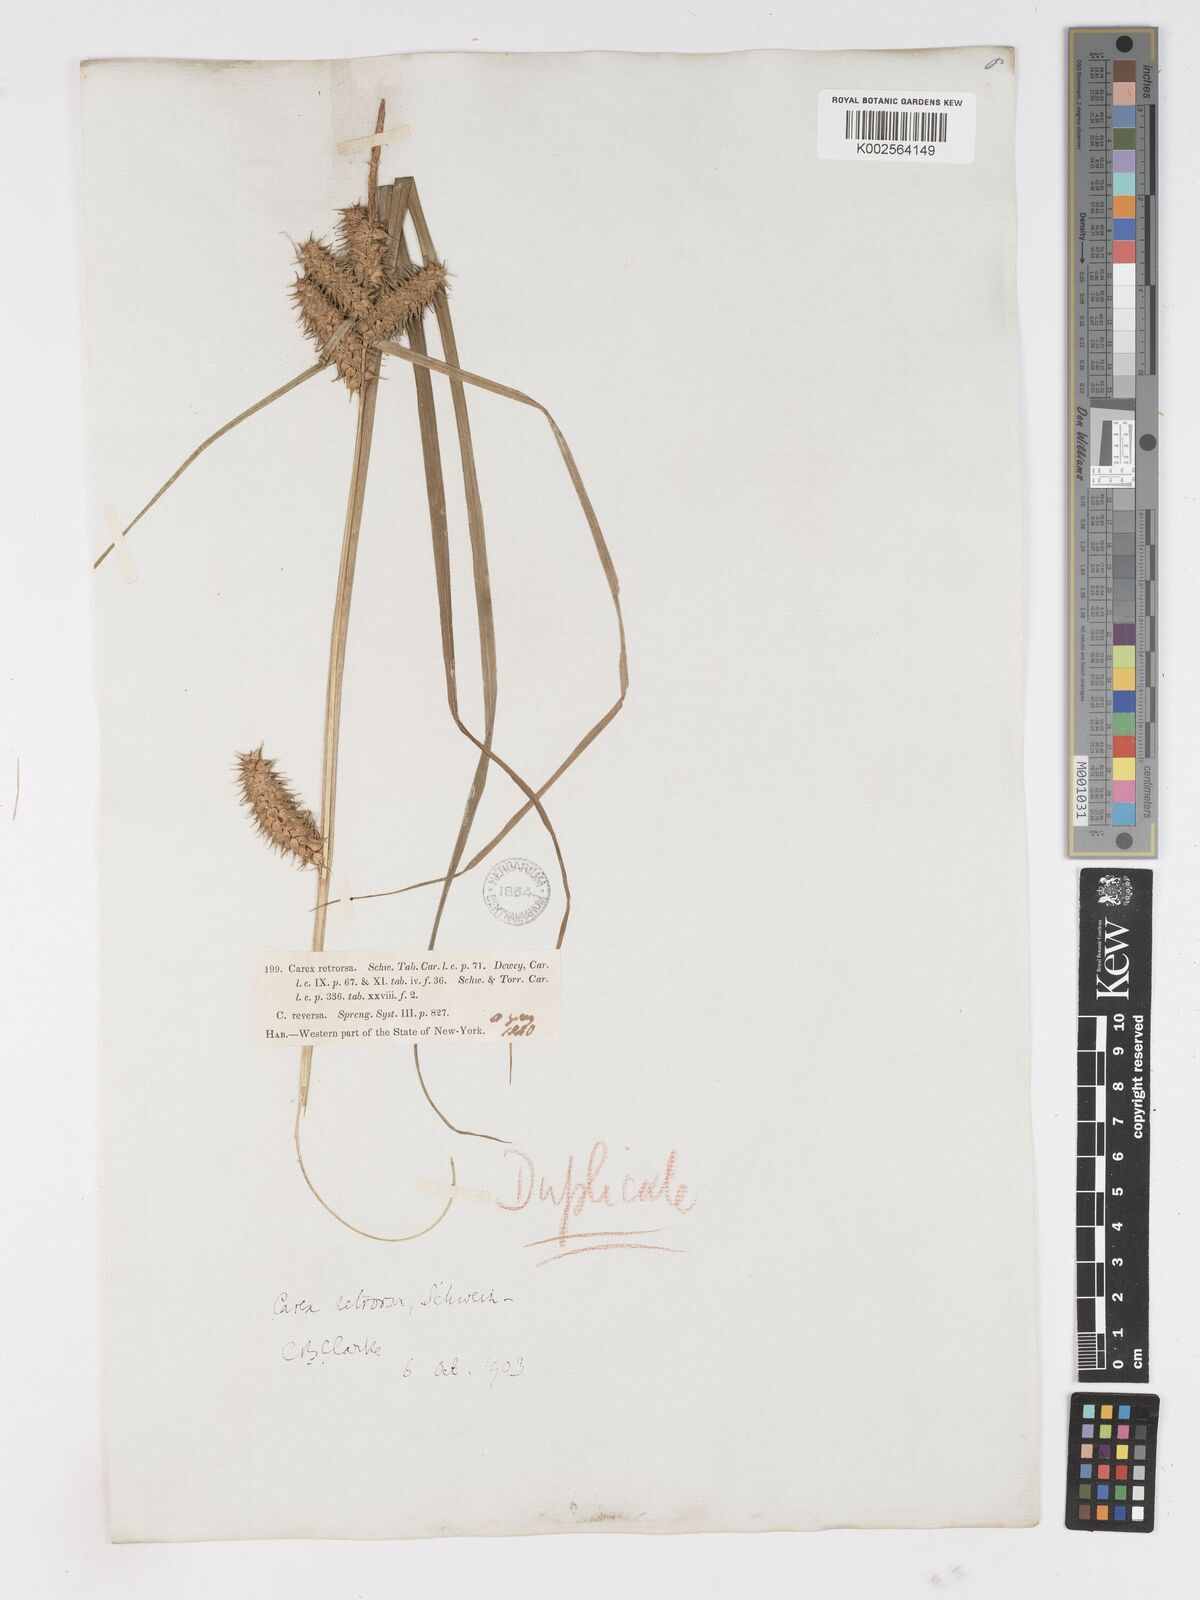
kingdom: Plantae
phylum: Tracheophyta
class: Liliopsida
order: Poales
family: Cyperaceae
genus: Carex
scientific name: Carex retrorsa
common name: Knot-sheath sedge
